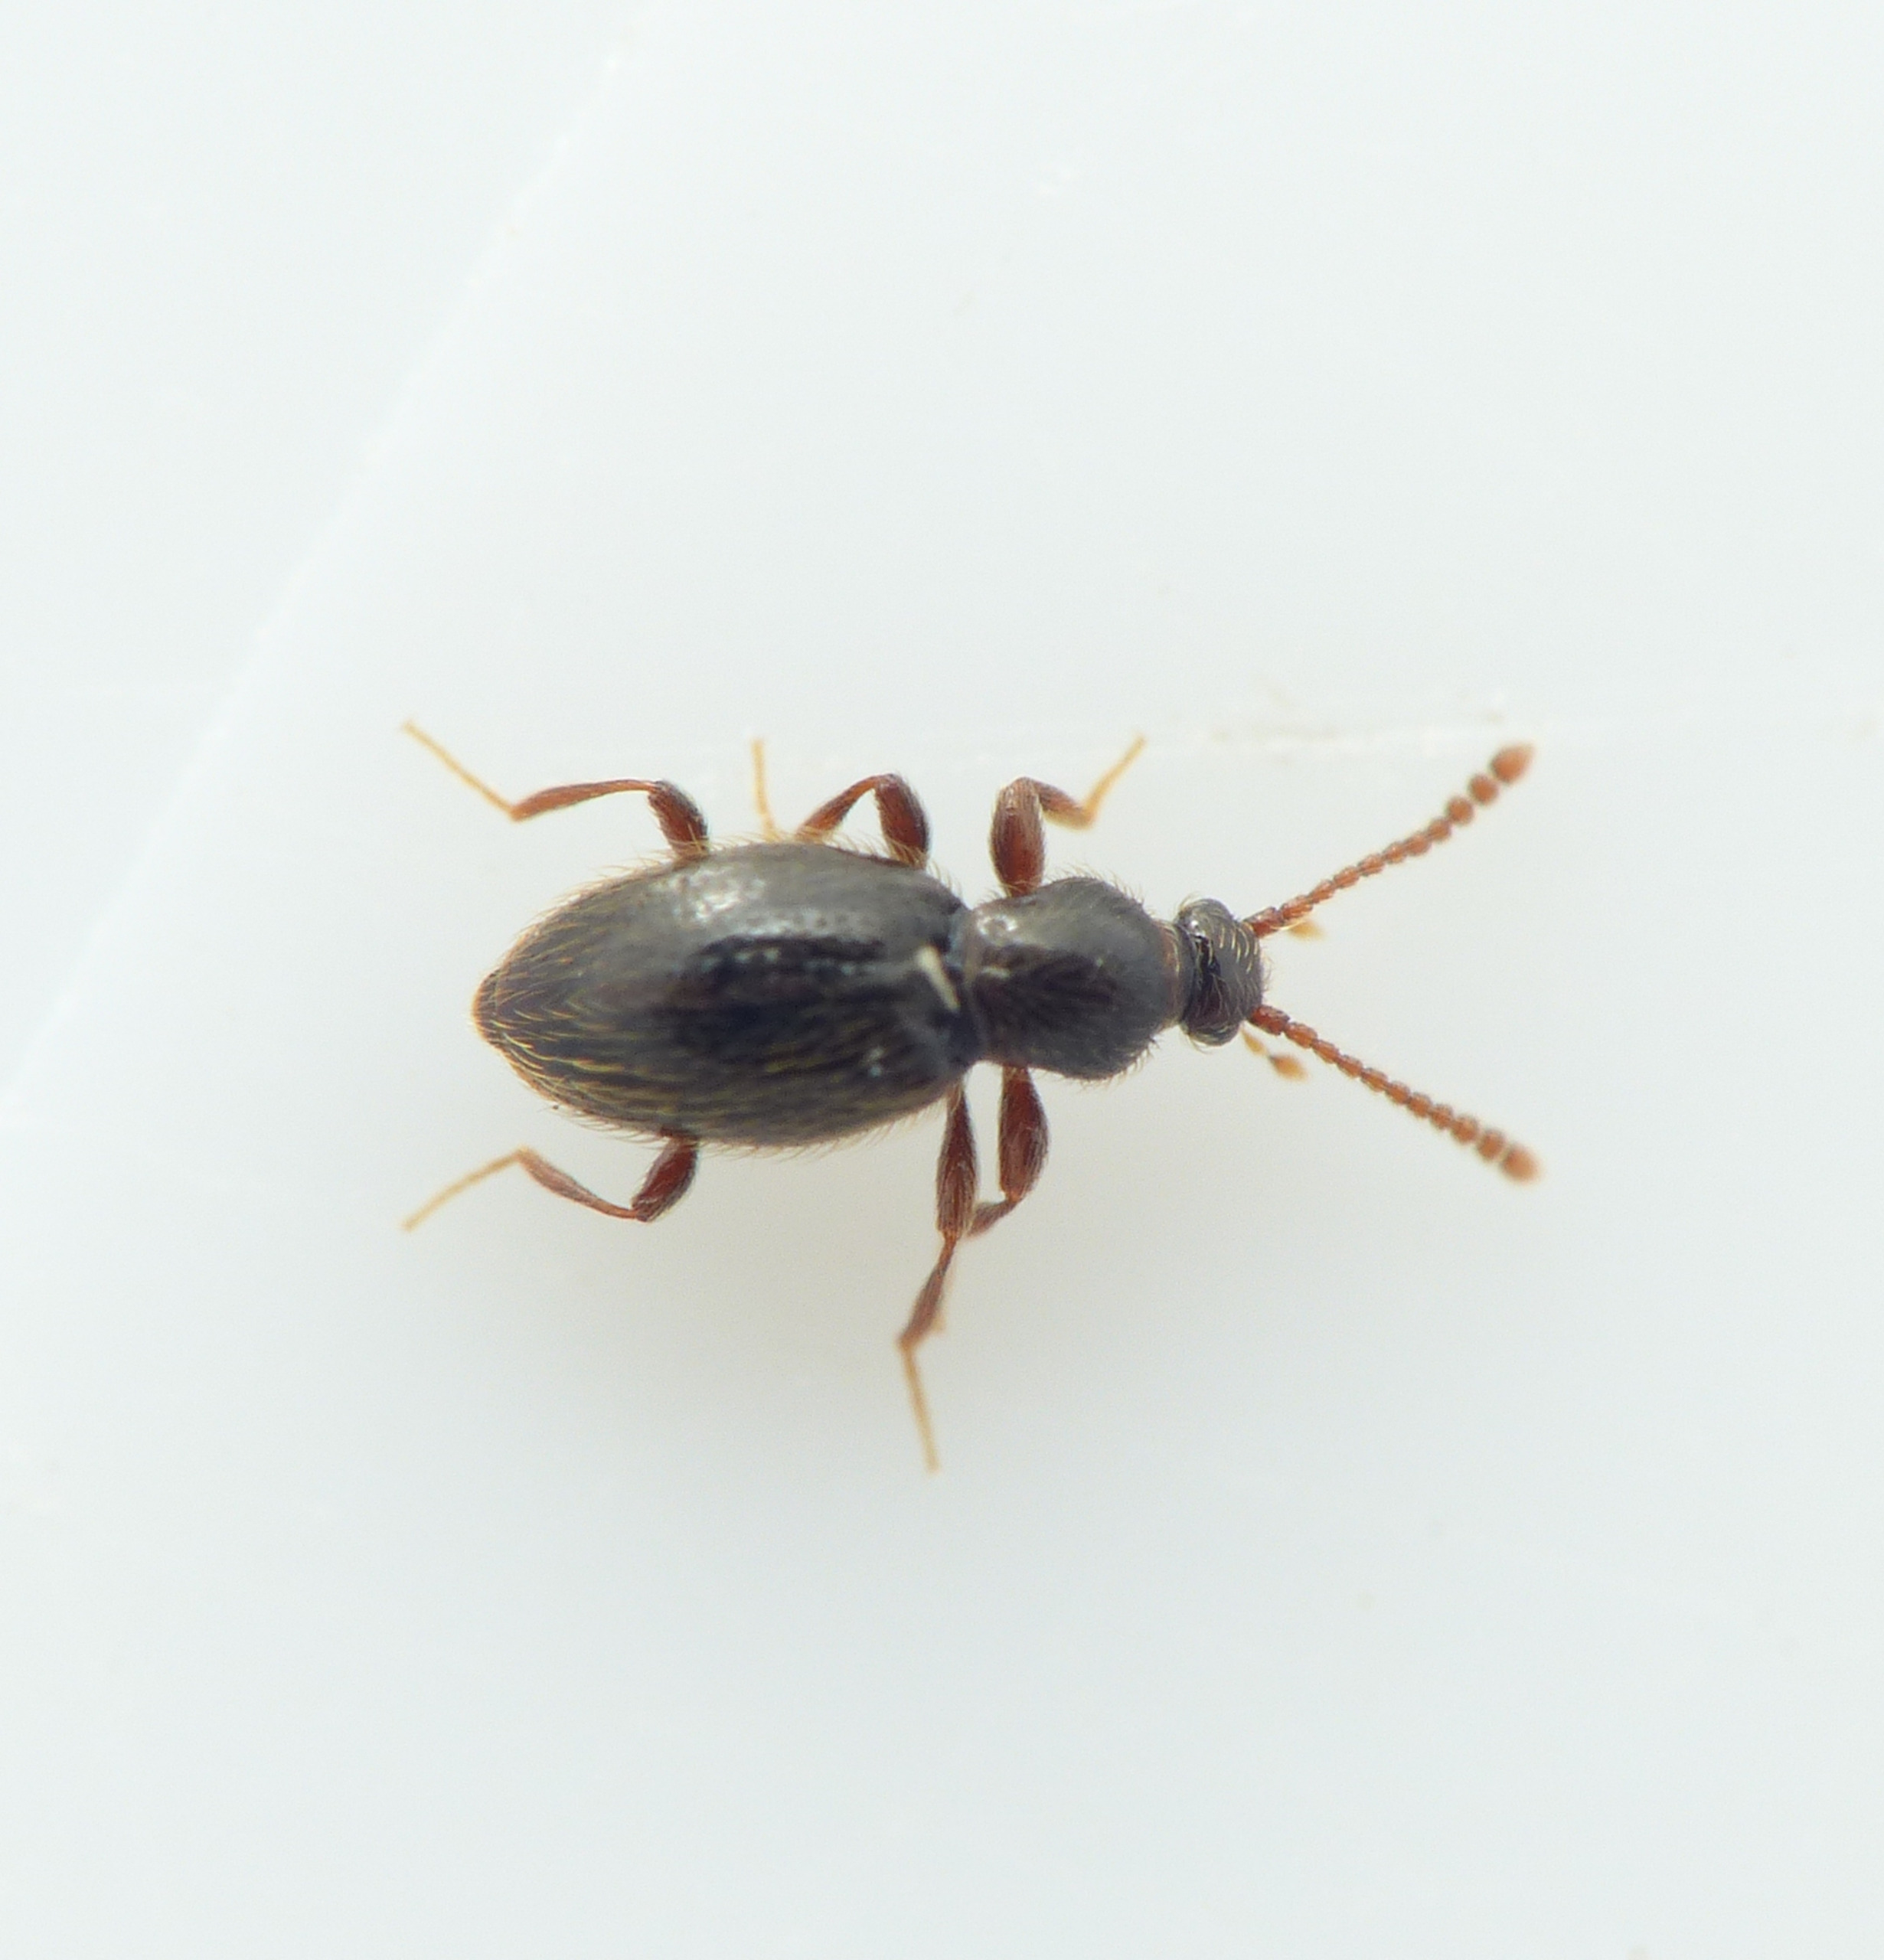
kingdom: Animalia
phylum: Arthropoda
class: Insecta
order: Coleoptera
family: Staphylinidae
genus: Stenichnus
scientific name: Stenichnus collaris
